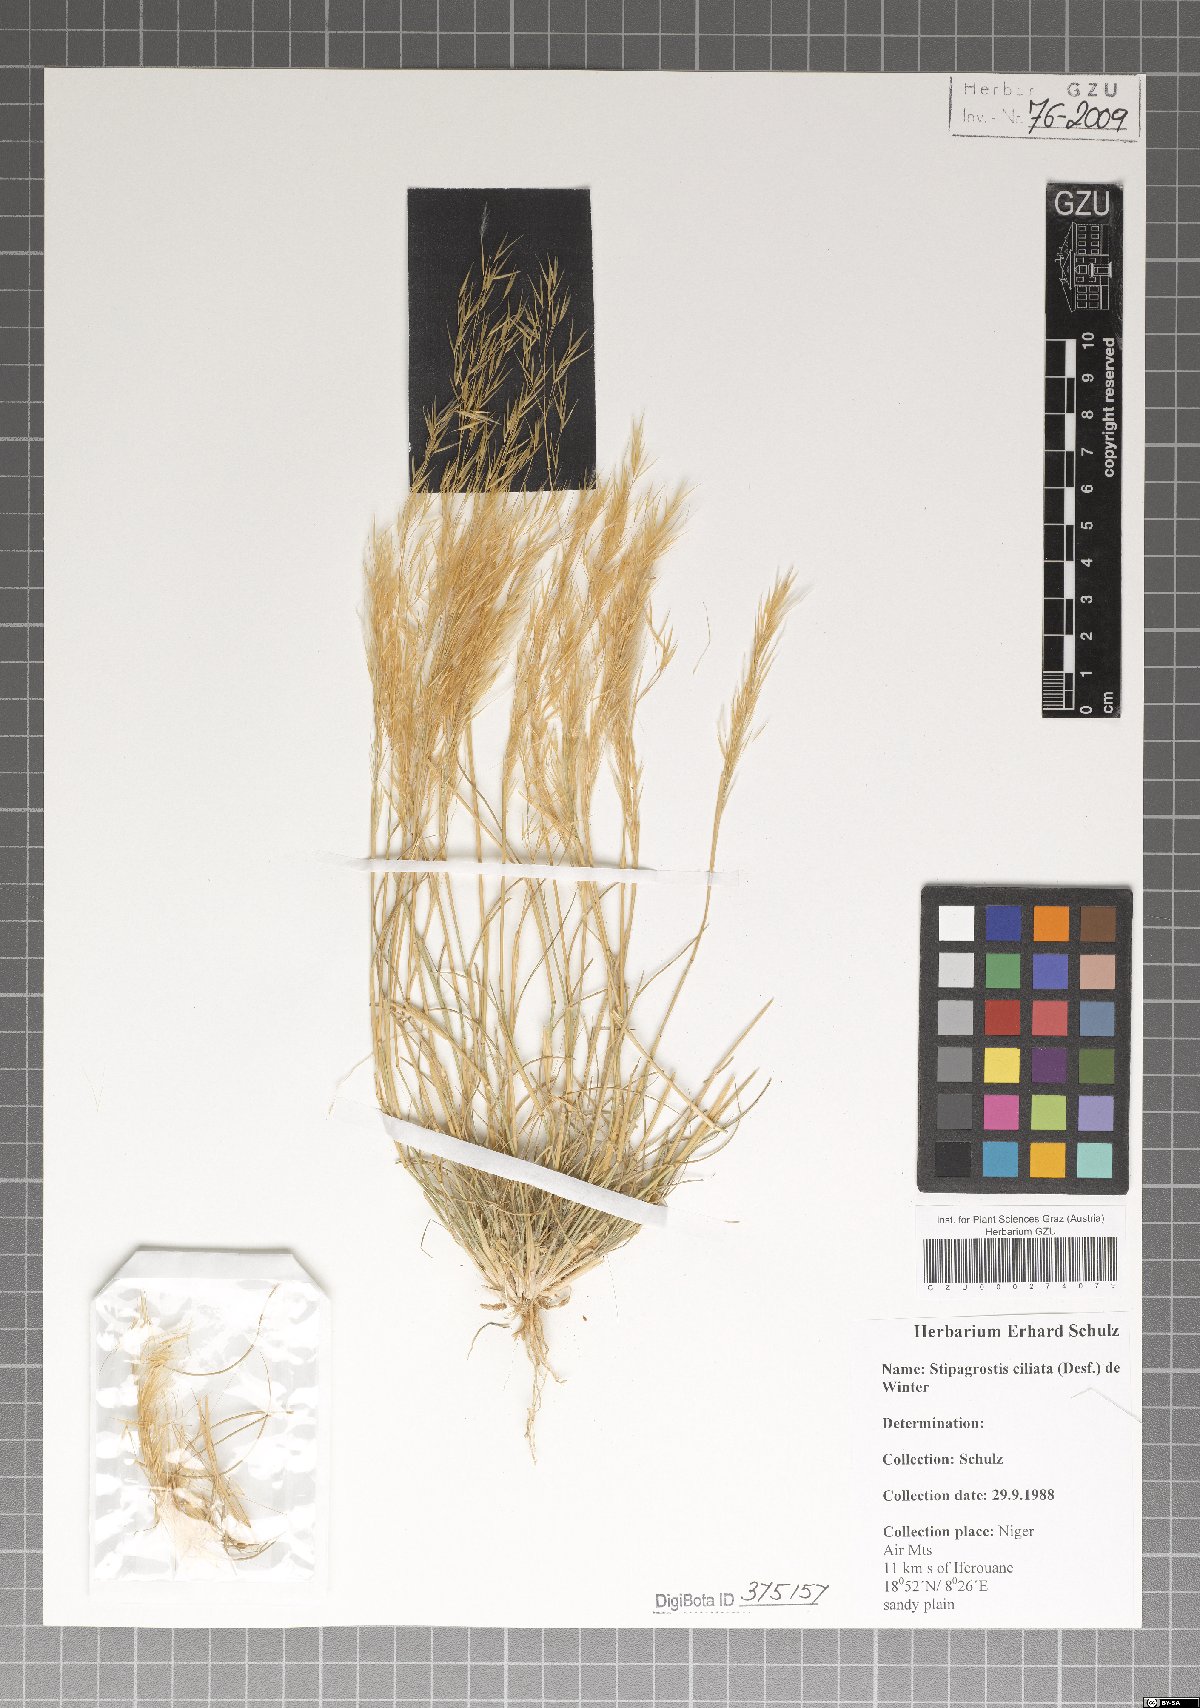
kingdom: Plantae
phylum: Tracheophyta
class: Liliopsida
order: Poales
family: Poaceae
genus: Stipagrostis
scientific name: Stipagrostis ciliata
